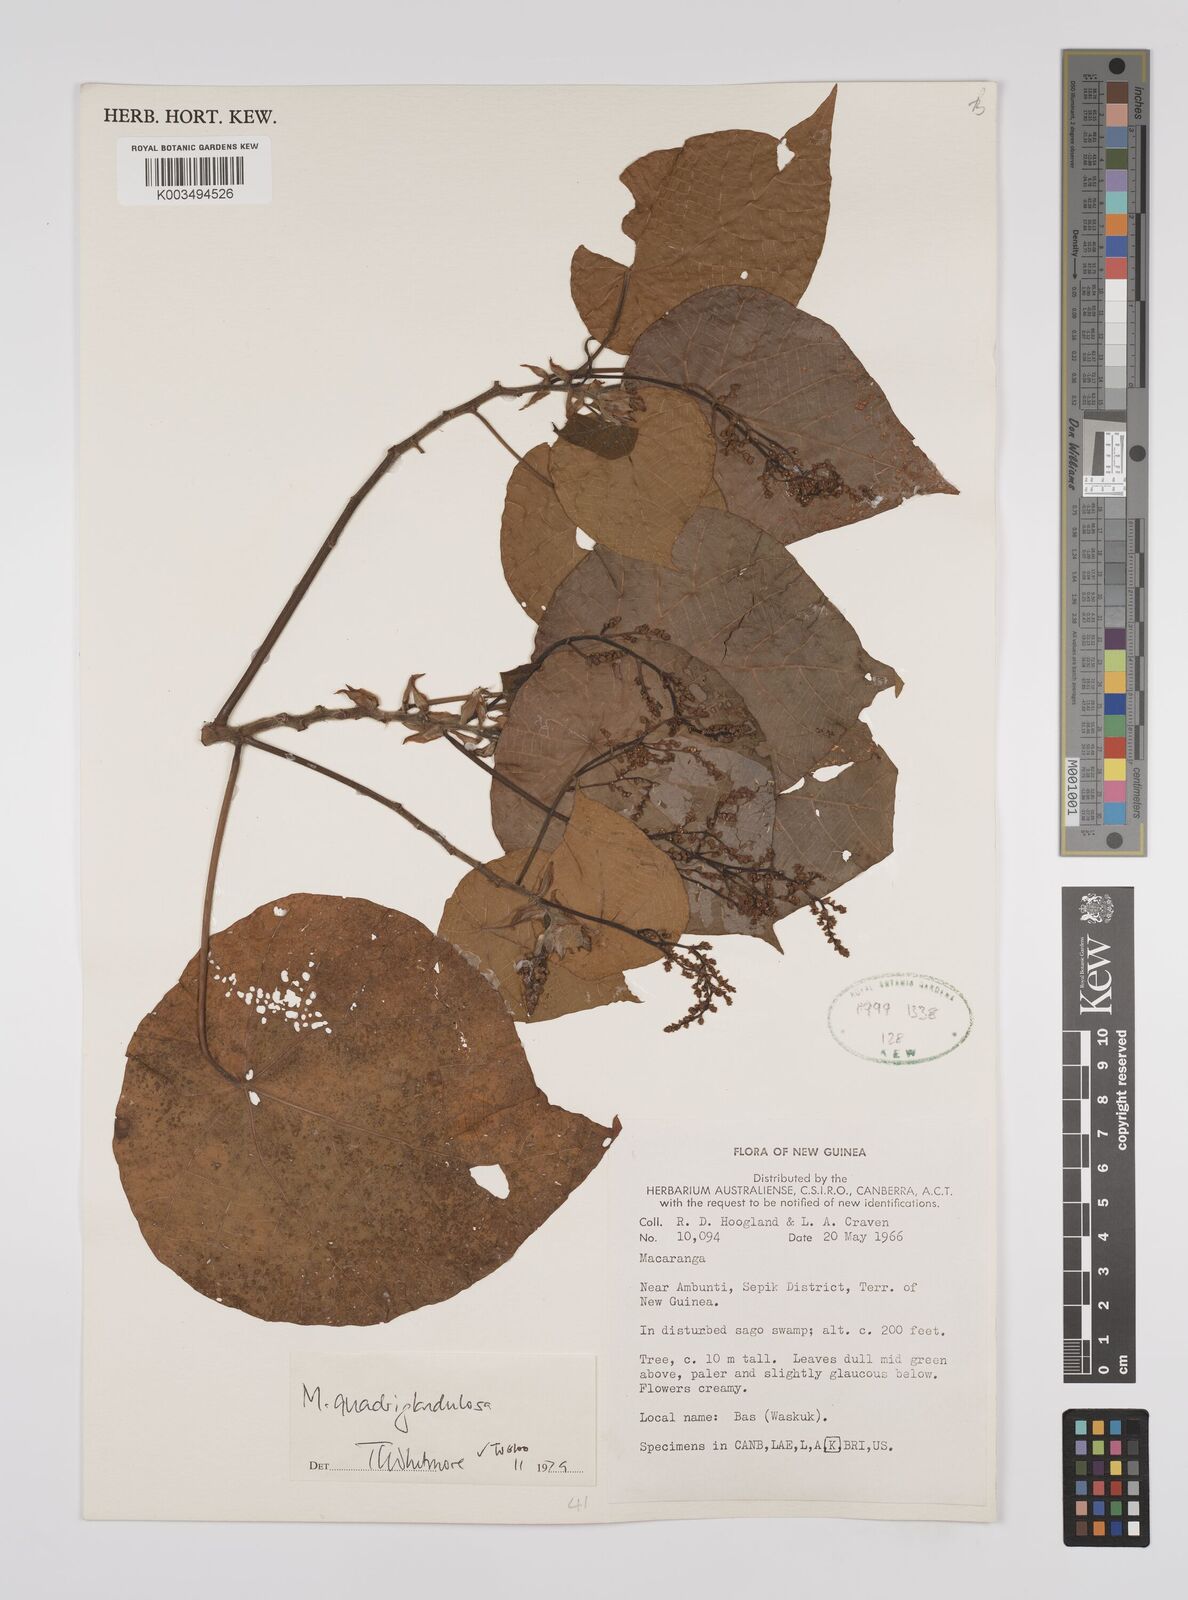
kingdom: Plantae
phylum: Tracheophyta
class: Magnoliopsida
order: Malpighiales
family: Euphorbiaceae
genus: Macaranga
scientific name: Macaranga quadriglandulosa
